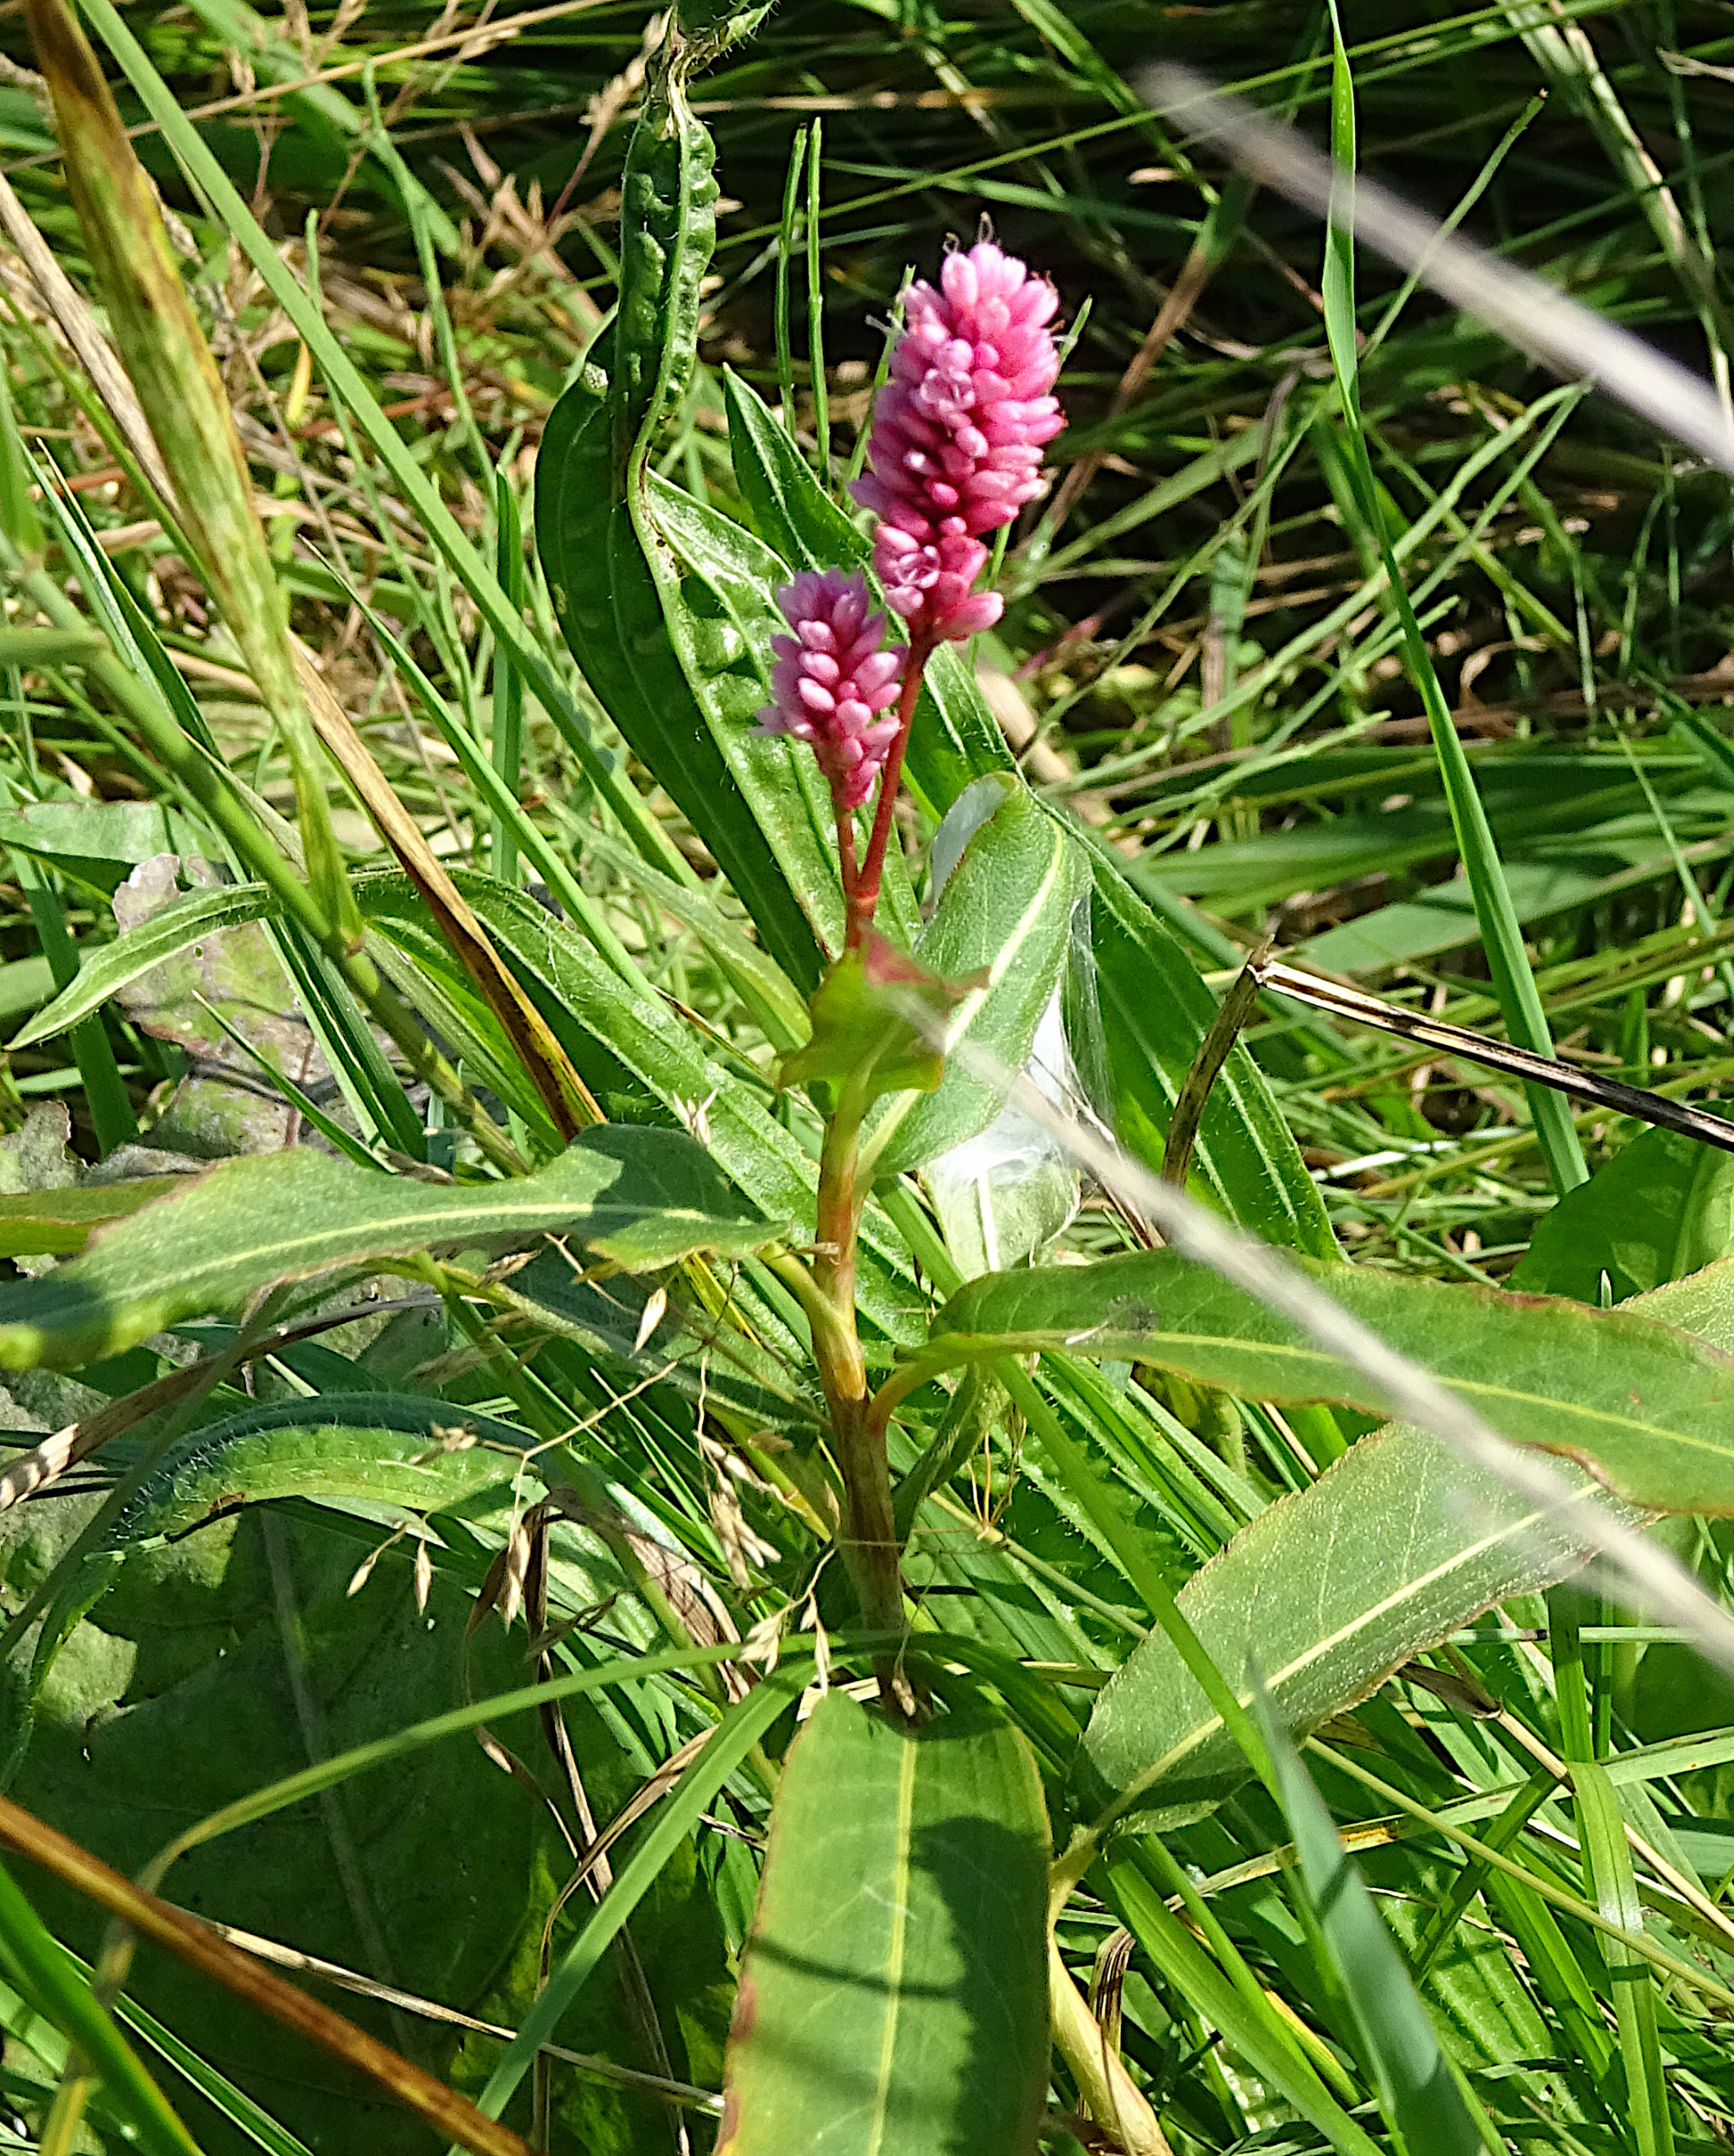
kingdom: Plantae
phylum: Tracheophyta
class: Magnoliopsida
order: Caryophyllales
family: Polygonaceae
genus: Persicaria
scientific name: Persicaria amphibia
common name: Vand-pileurt
